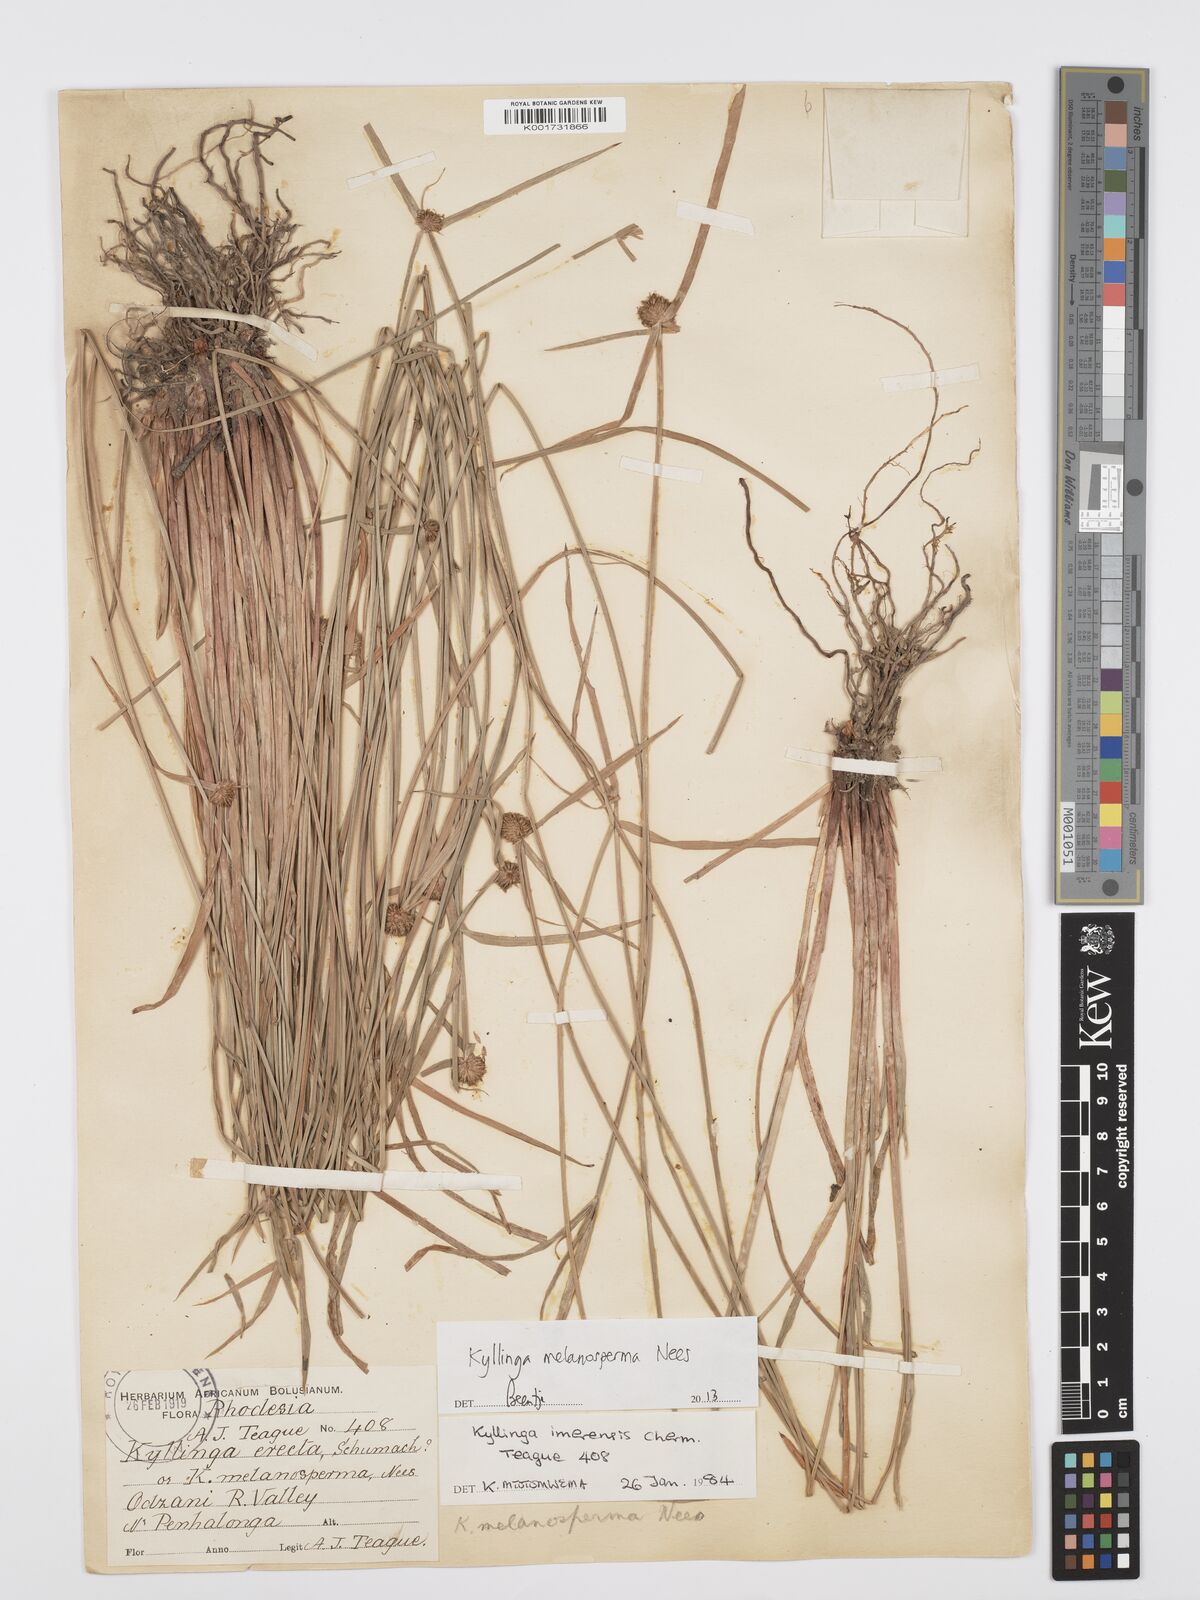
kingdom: Plantae
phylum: Tracheophyta
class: Liliopsida
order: Poales
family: Cyperaceae
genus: Cyperus
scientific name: Cyperus melanospermus
